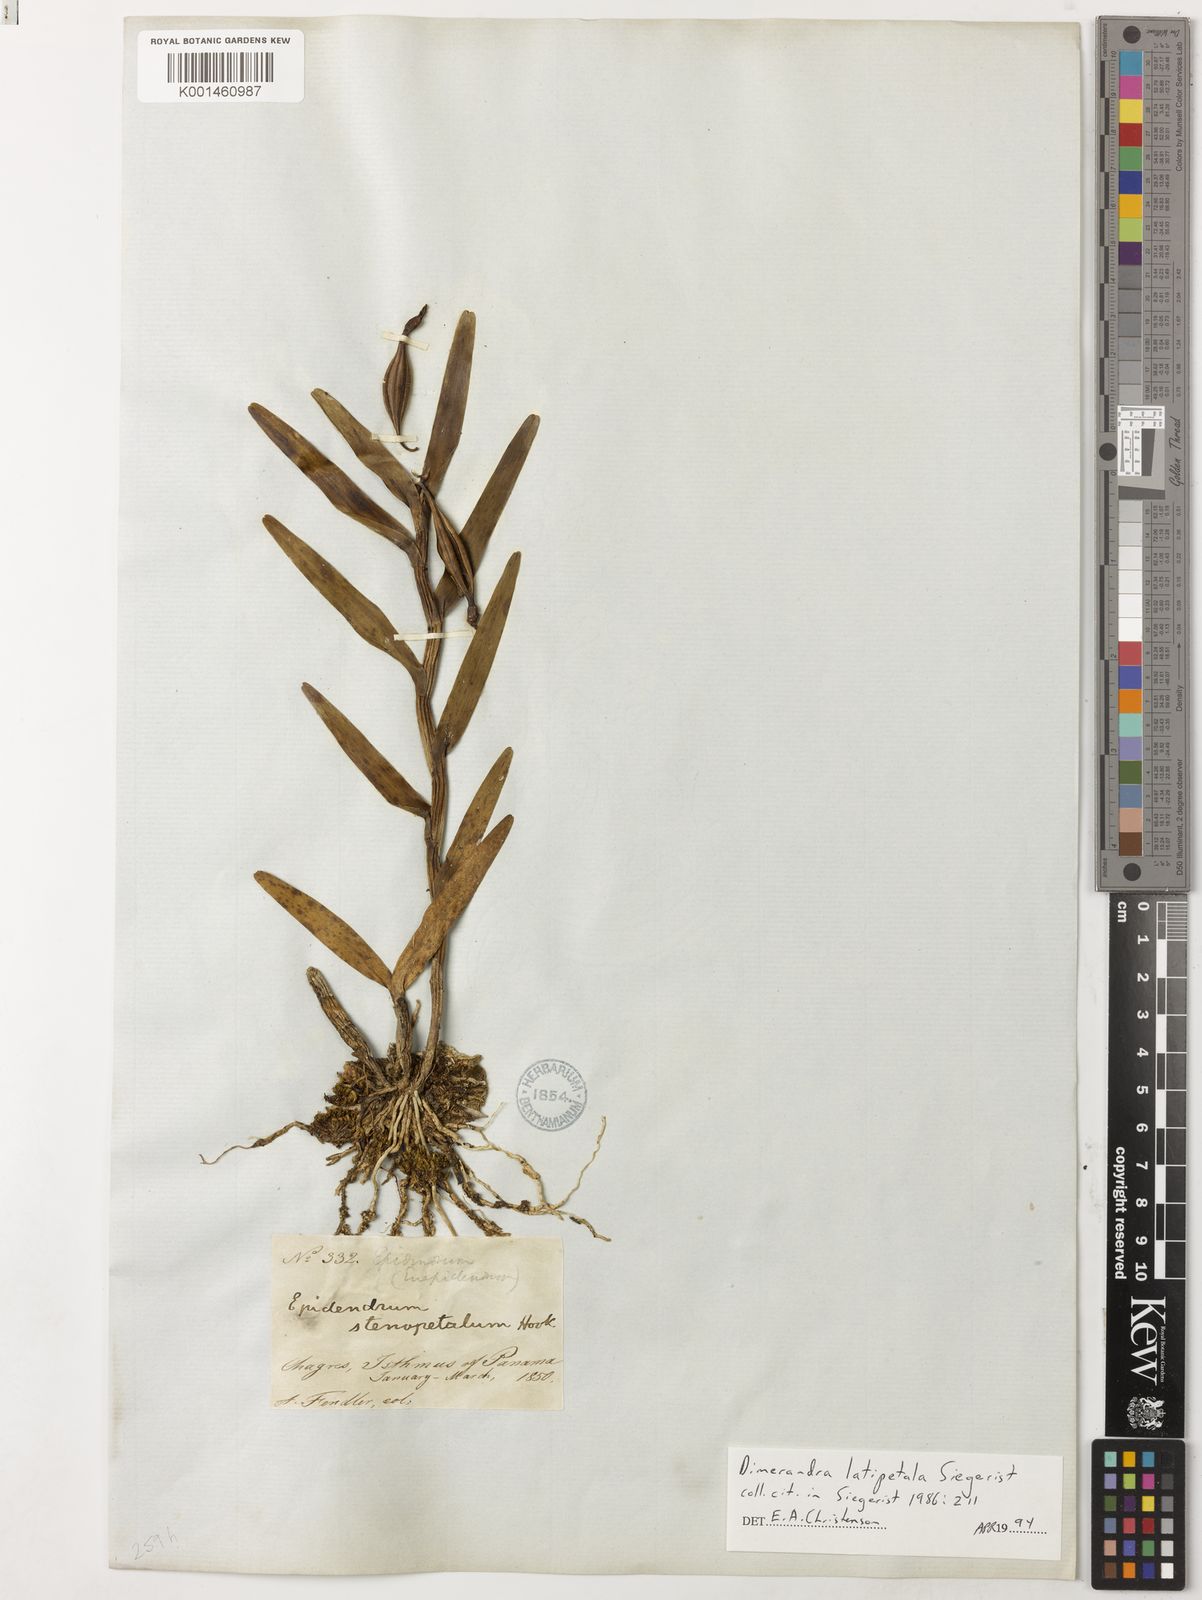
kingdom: Plantae
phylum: Tracheophyta
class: Liliopsida
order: Asparagales
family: Orchidaceae
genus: Dimerandra
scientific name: Dimerandra emarginata
